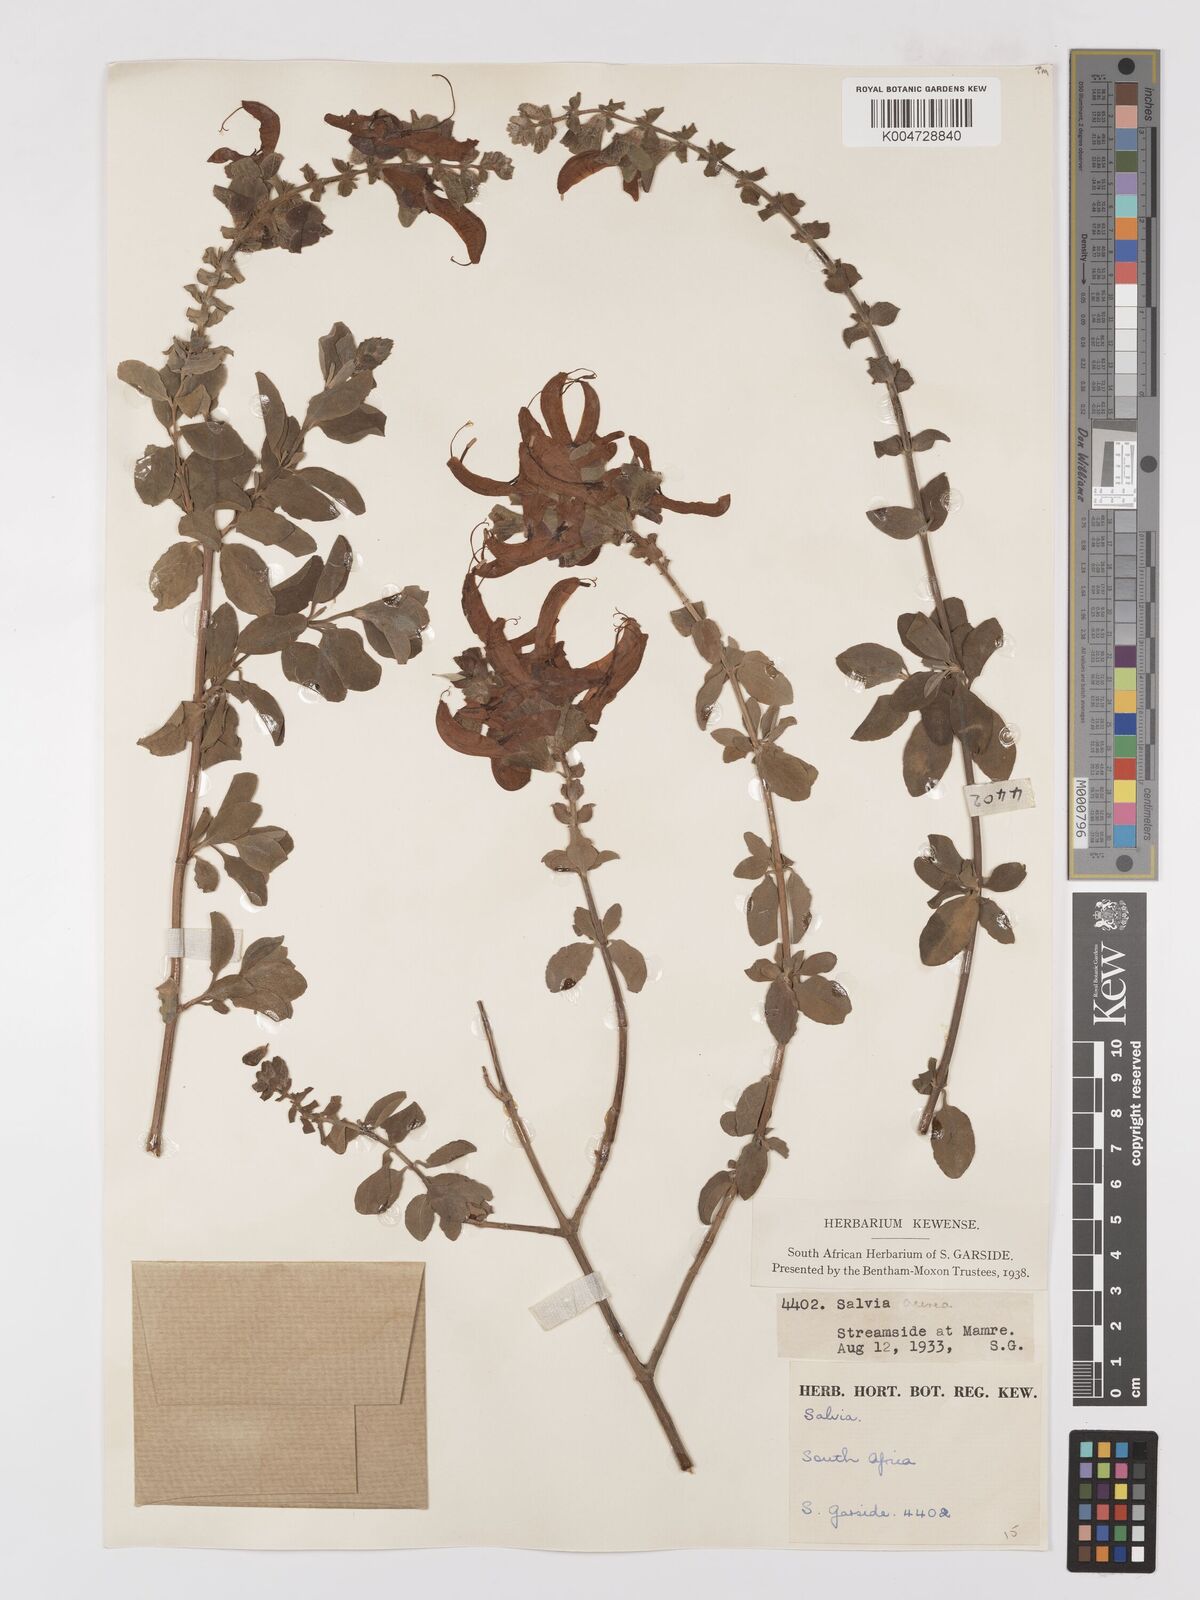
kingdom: Plantae
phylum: Tracheophyta
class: Magnoliopsida
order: Lamiales
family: Lamiaceae
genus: Salvia
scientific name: Salvia aurea
